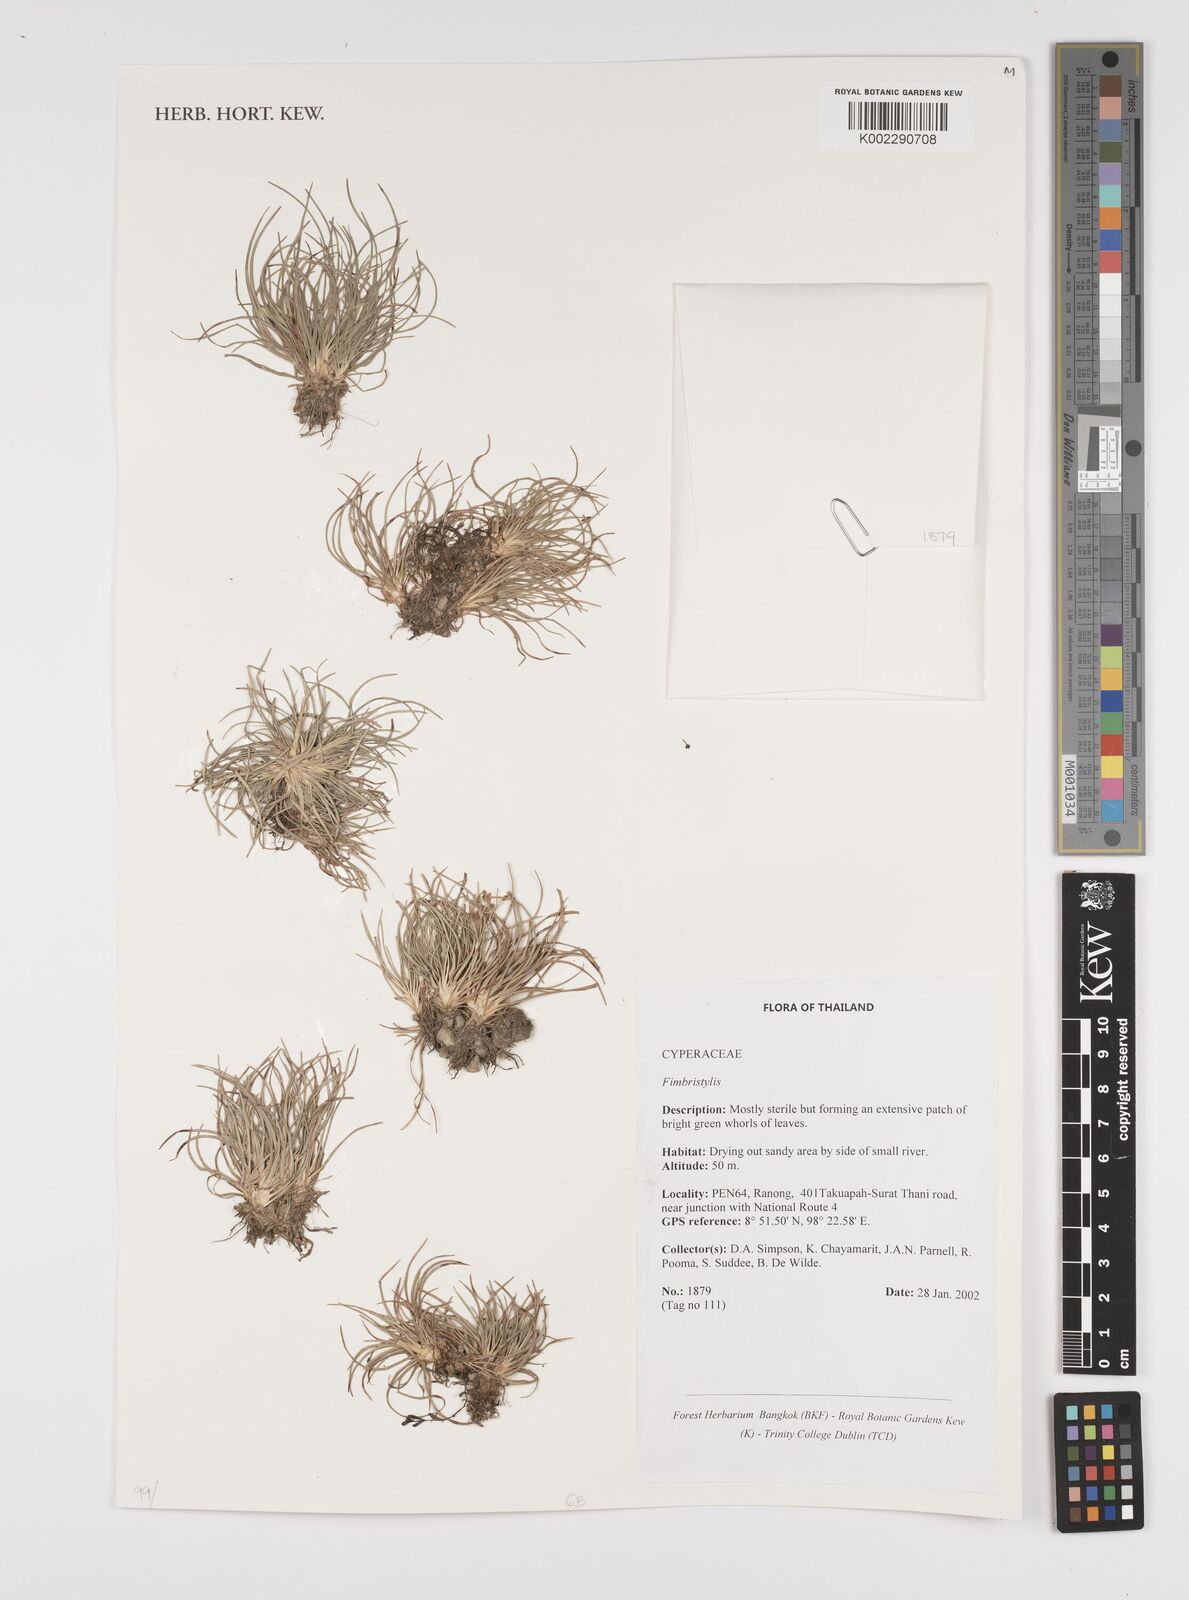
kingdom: Plantae
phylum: Tracheophyta
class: Liliopsida
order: Poales
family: Cyperaceae
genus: Fimbristylis
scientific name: Fimbristylis
